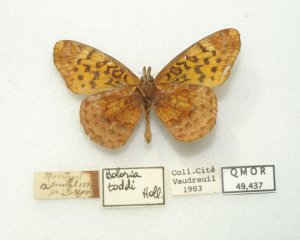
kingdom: Animalia
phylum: Arthropoda
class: Insecta
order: Lepidoptera
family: Nymphalidae
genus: Clossiana
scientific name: Clossiana toddi
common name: Meadow Fritillary
